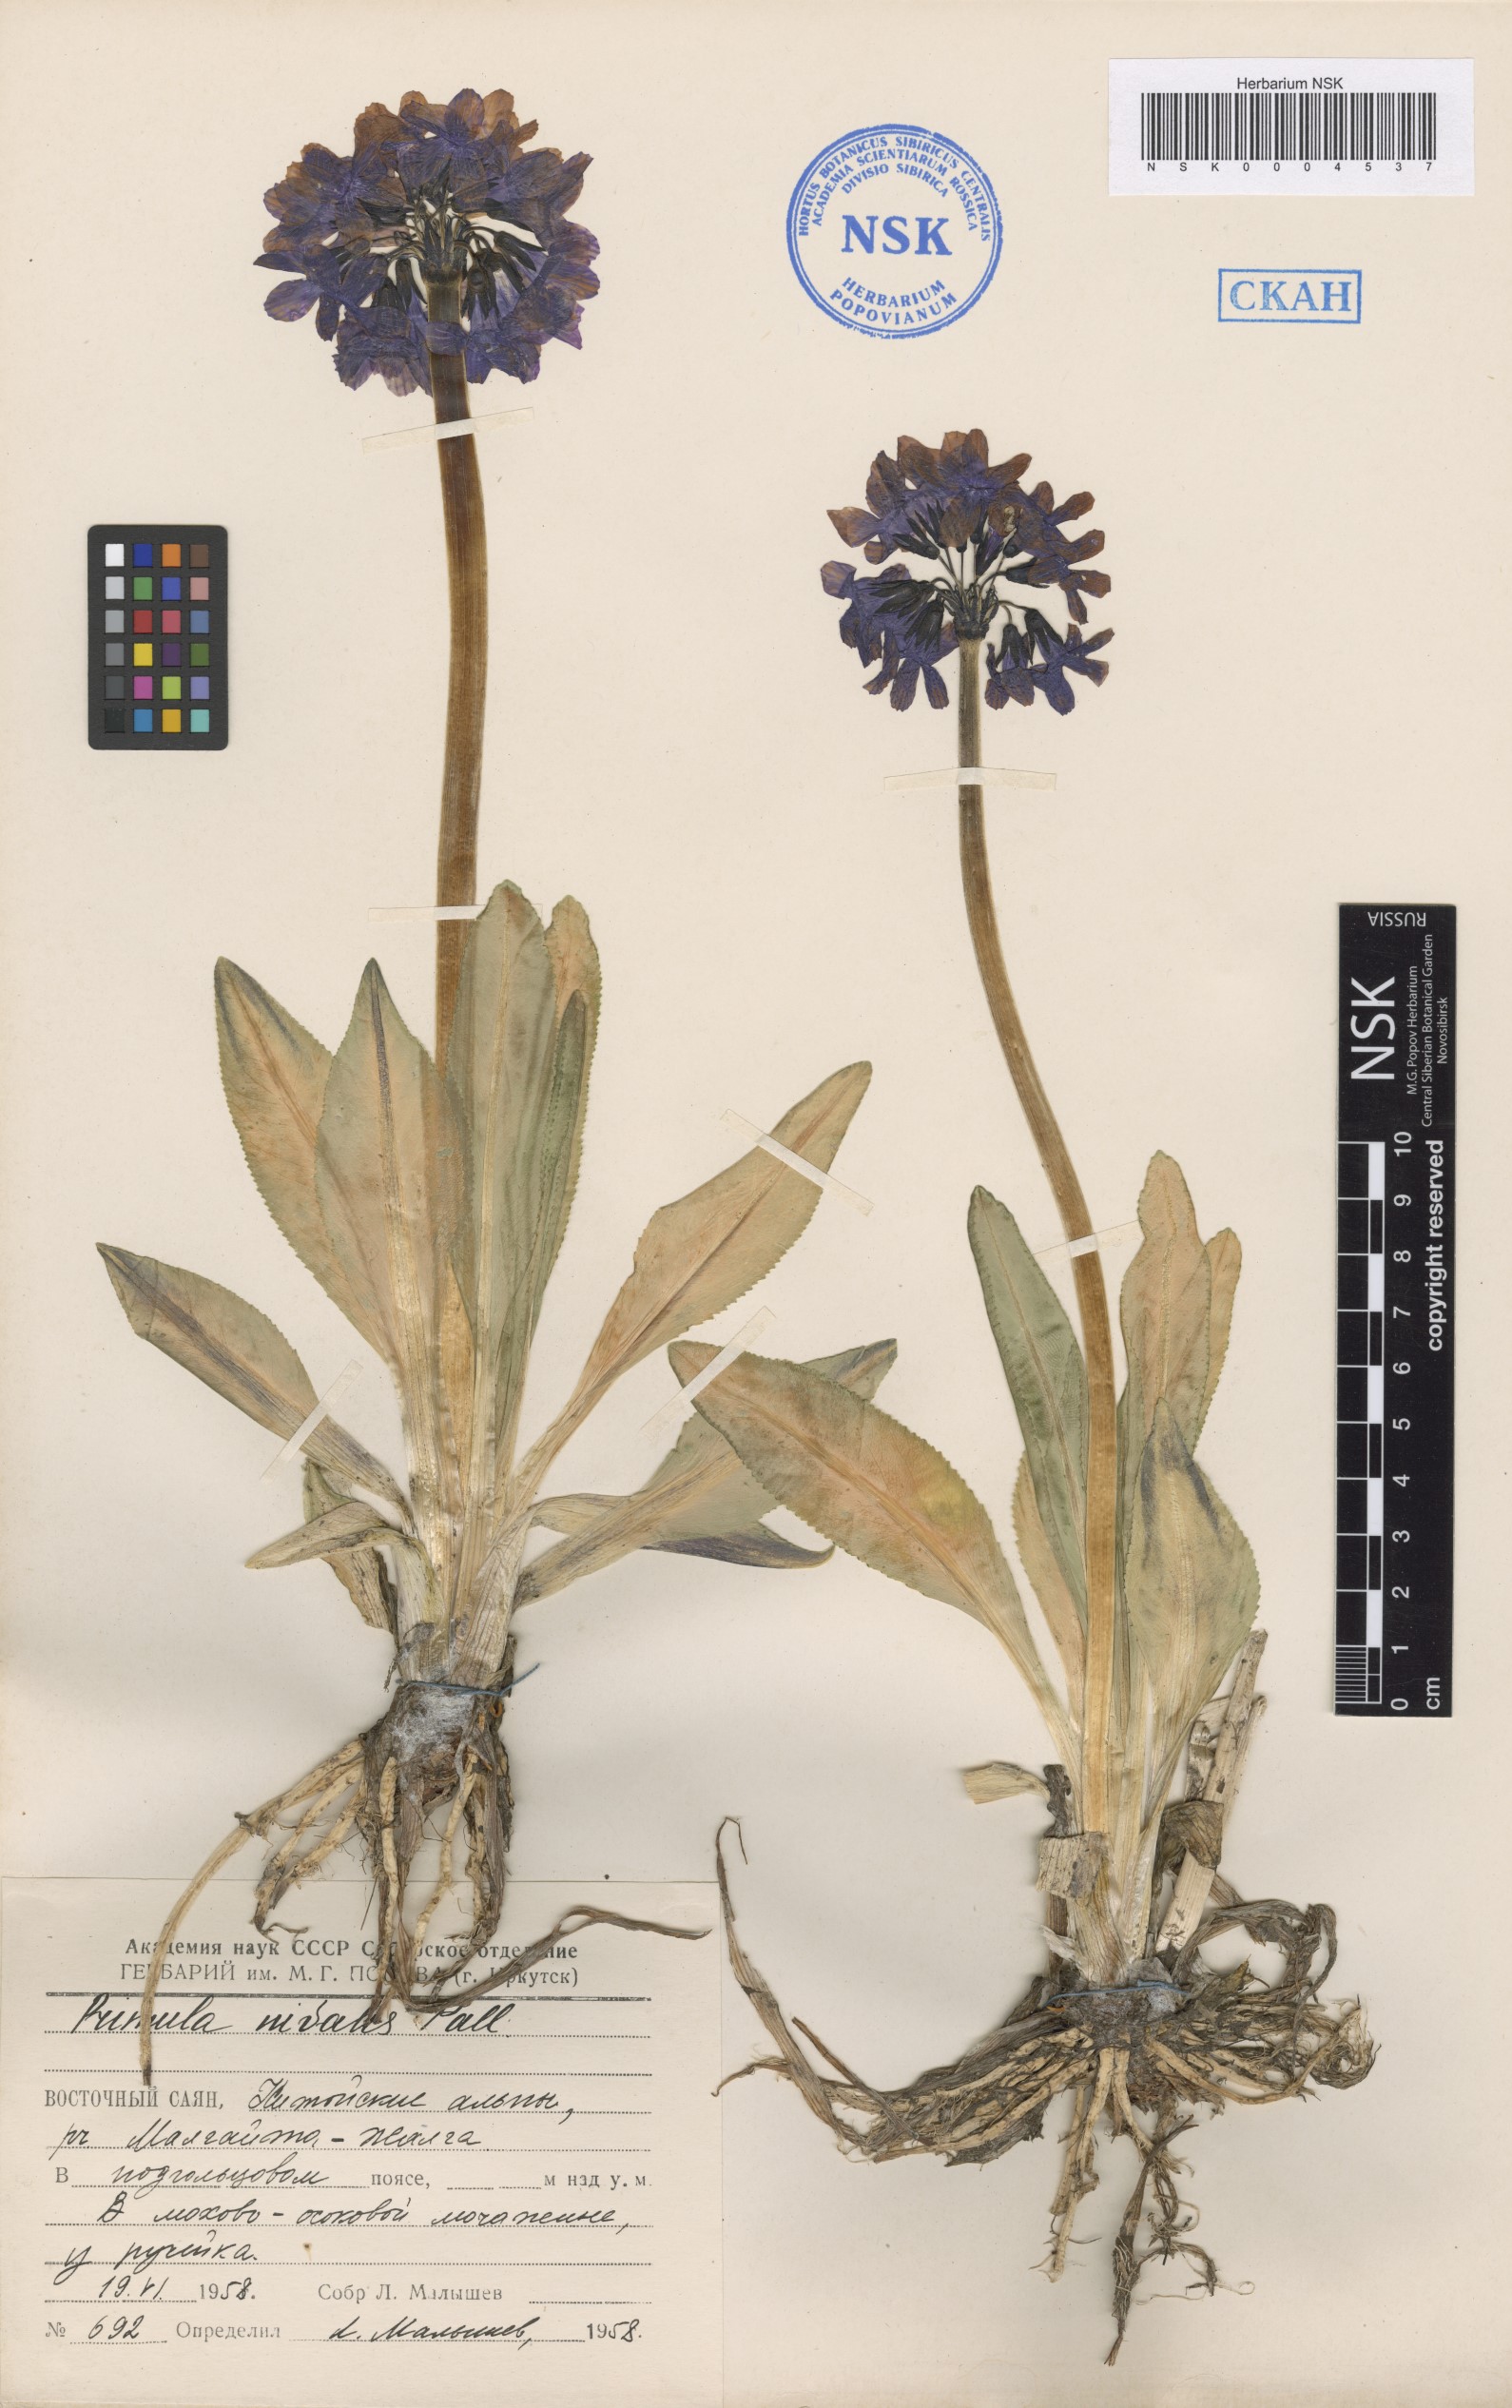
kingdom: Plantae
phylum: Tracheophyta
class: Magnoliopsida
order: Ericales
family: Primulaceae
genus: Primula
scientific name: Primula nivalis
